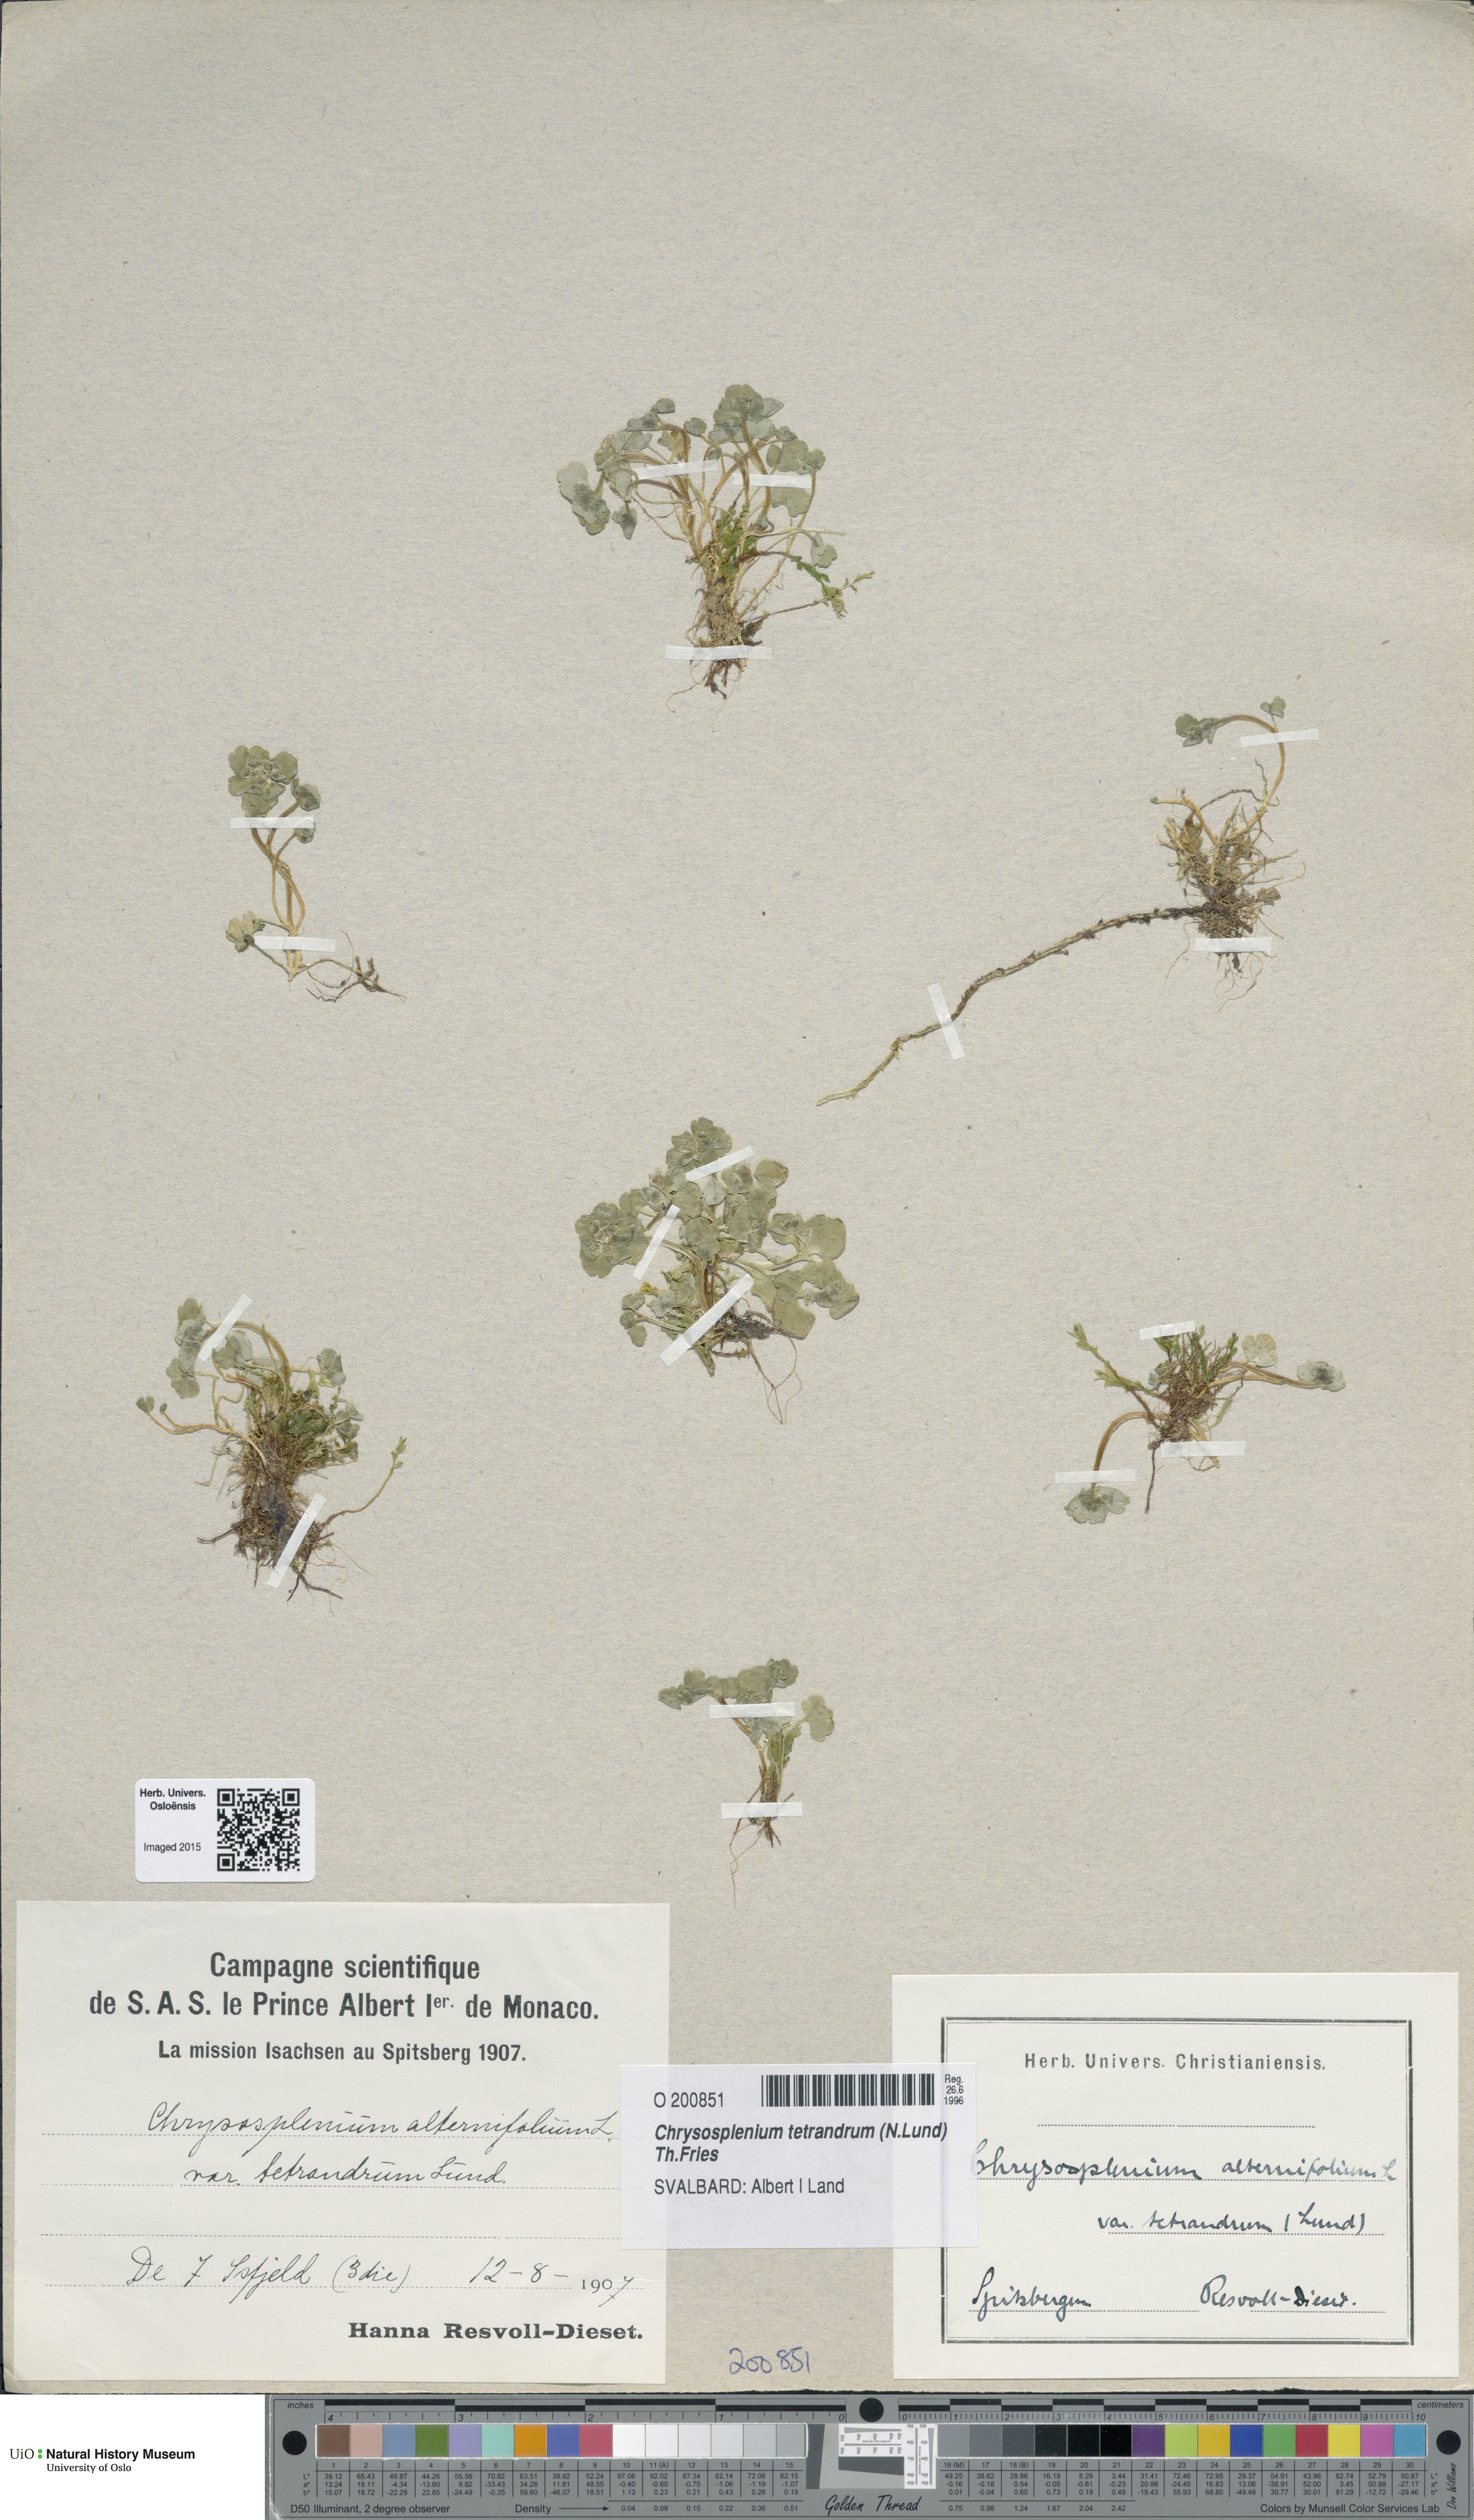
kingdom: Plantae
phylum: Tracheophyta
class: Magnoliopsida
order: Saxifragales
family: Saxifragaceae
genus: Chrysosplenium
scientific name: Chrysosplenium tetrandrum
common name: Green saxifrage
